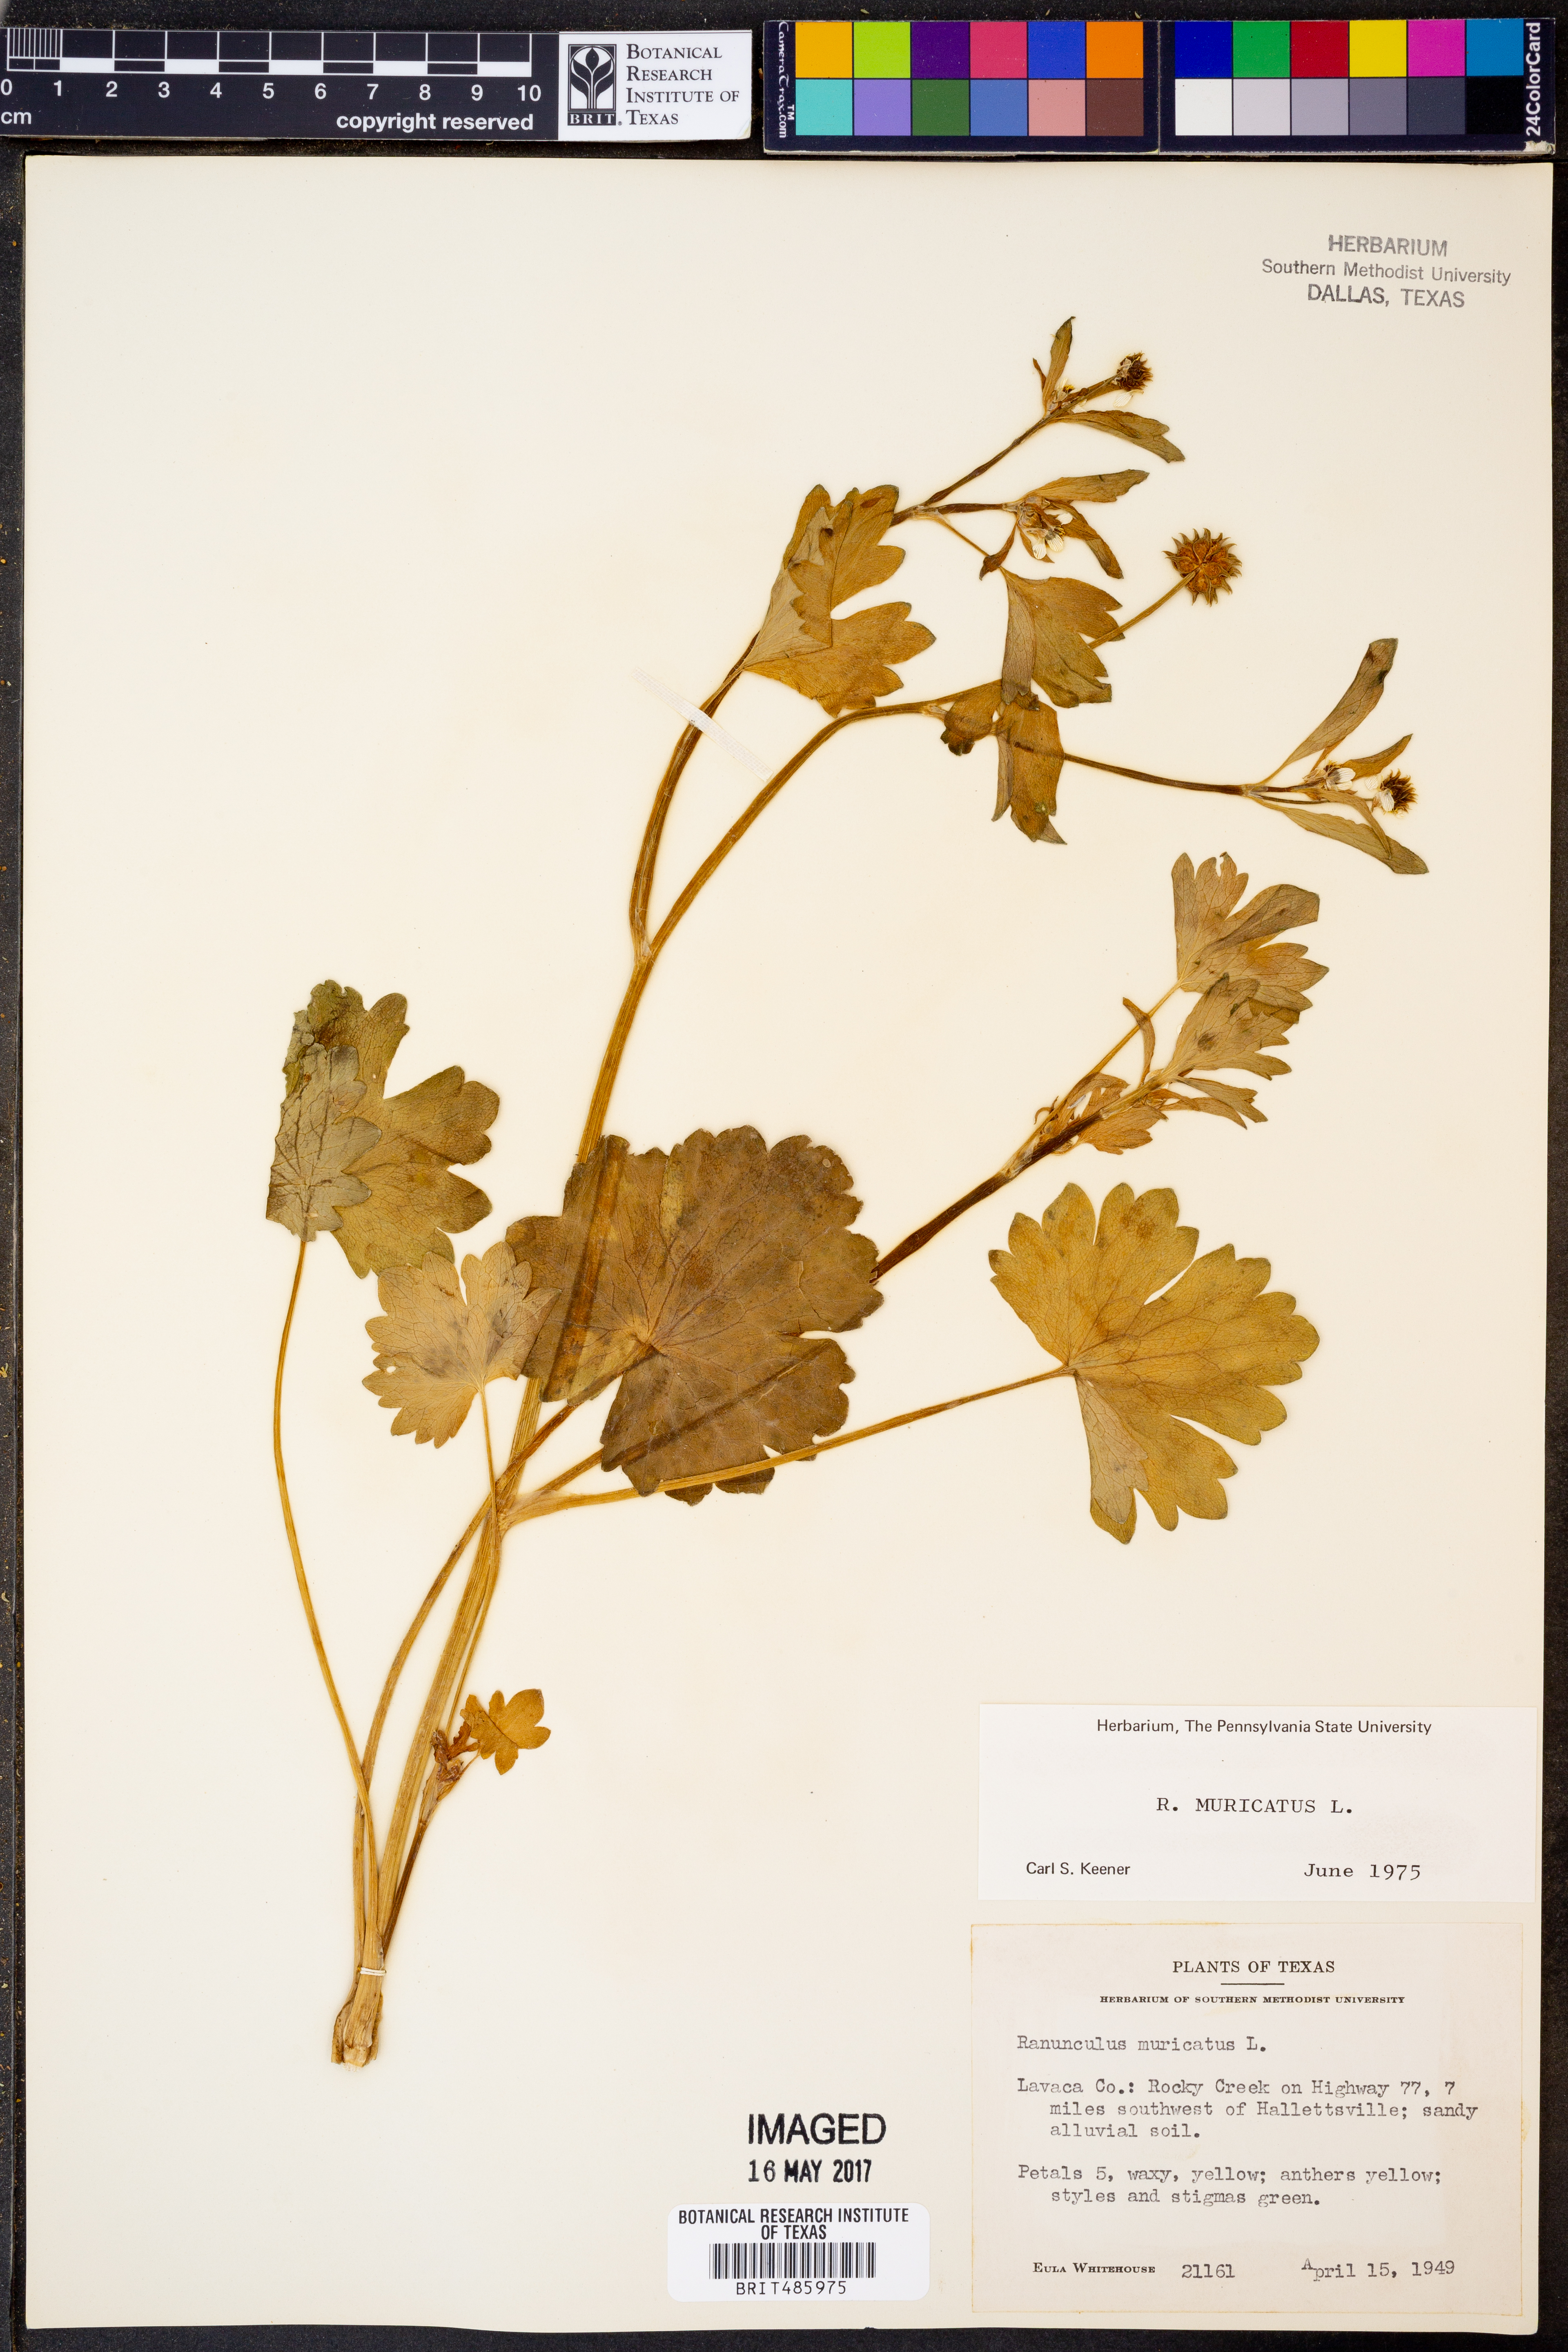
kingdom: Plantae
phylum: Tracheophyta
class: Magnoliopsida
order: Ranunculales
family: Ranunculaceae
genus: Ranunculus
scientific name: Ranunculus muricatus
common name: Rough-fruited buttercup
